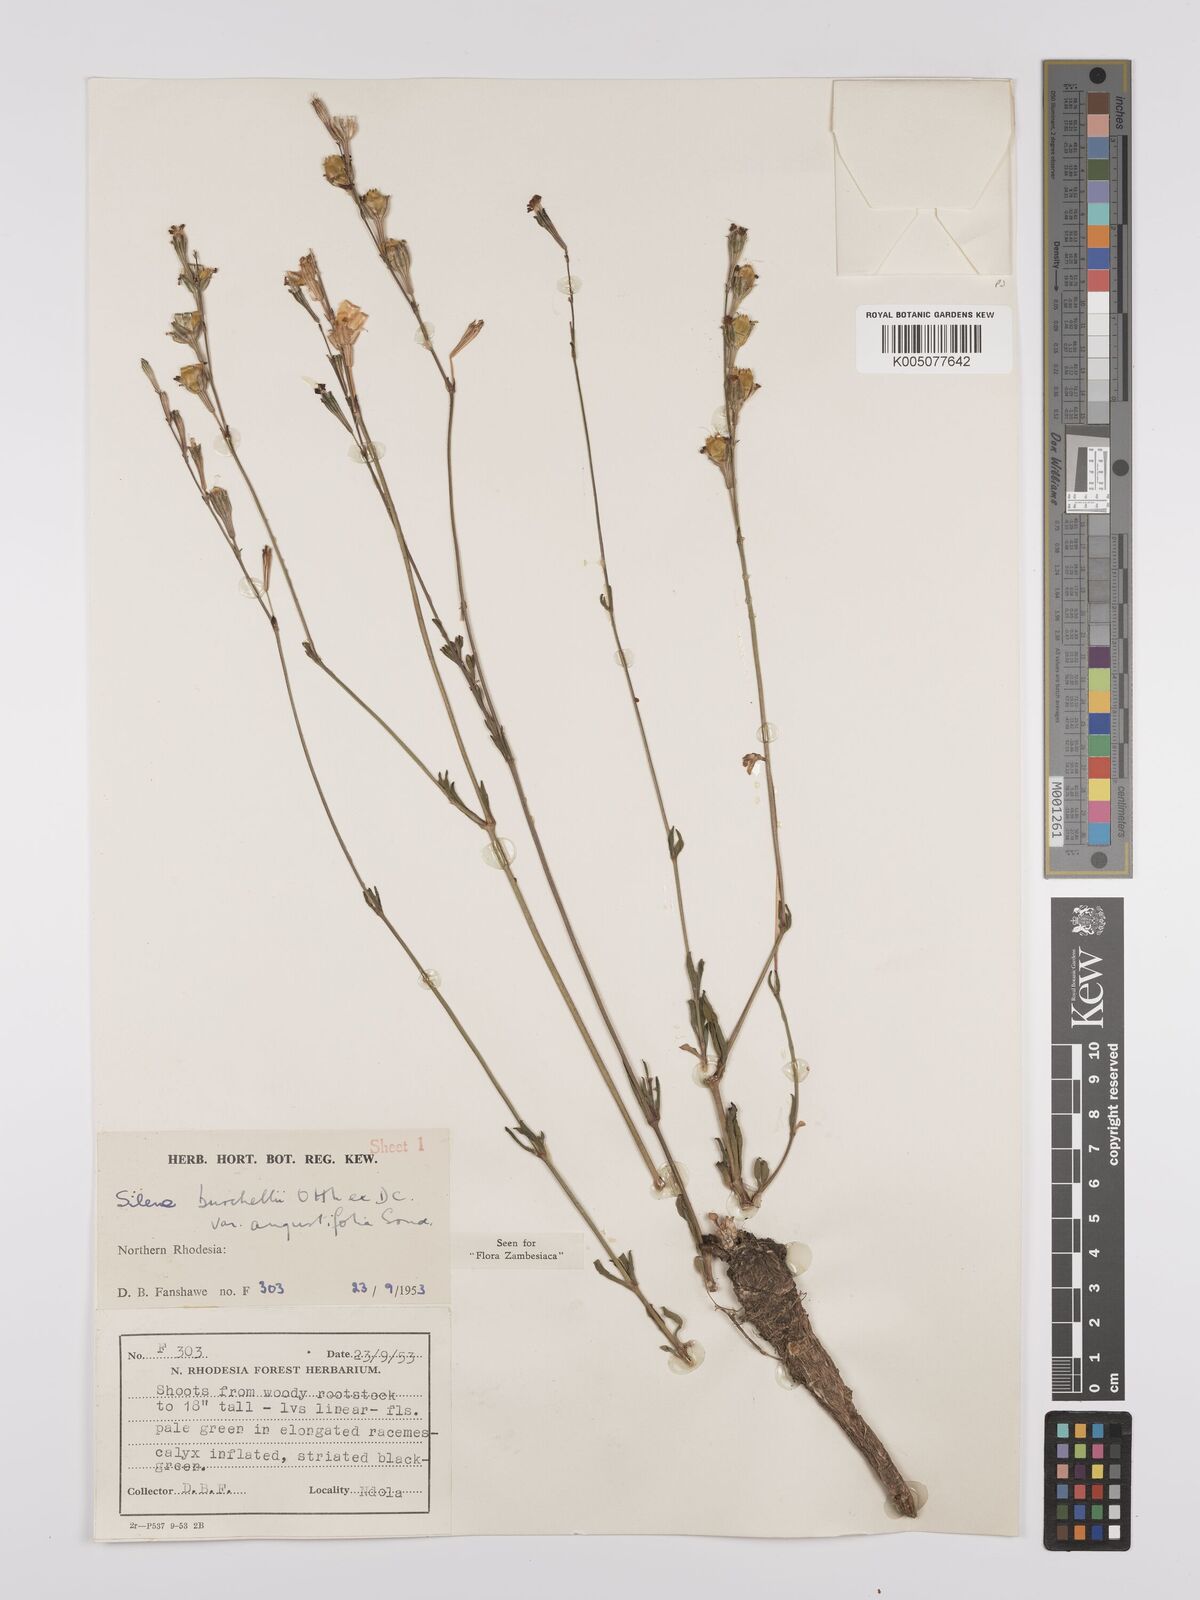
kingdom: Plantae
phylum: Tracheophyta
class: Magnoliopsida
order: Caryophyllales
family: Caryophyllaceae
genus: Silene
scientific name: Silene burchellii
